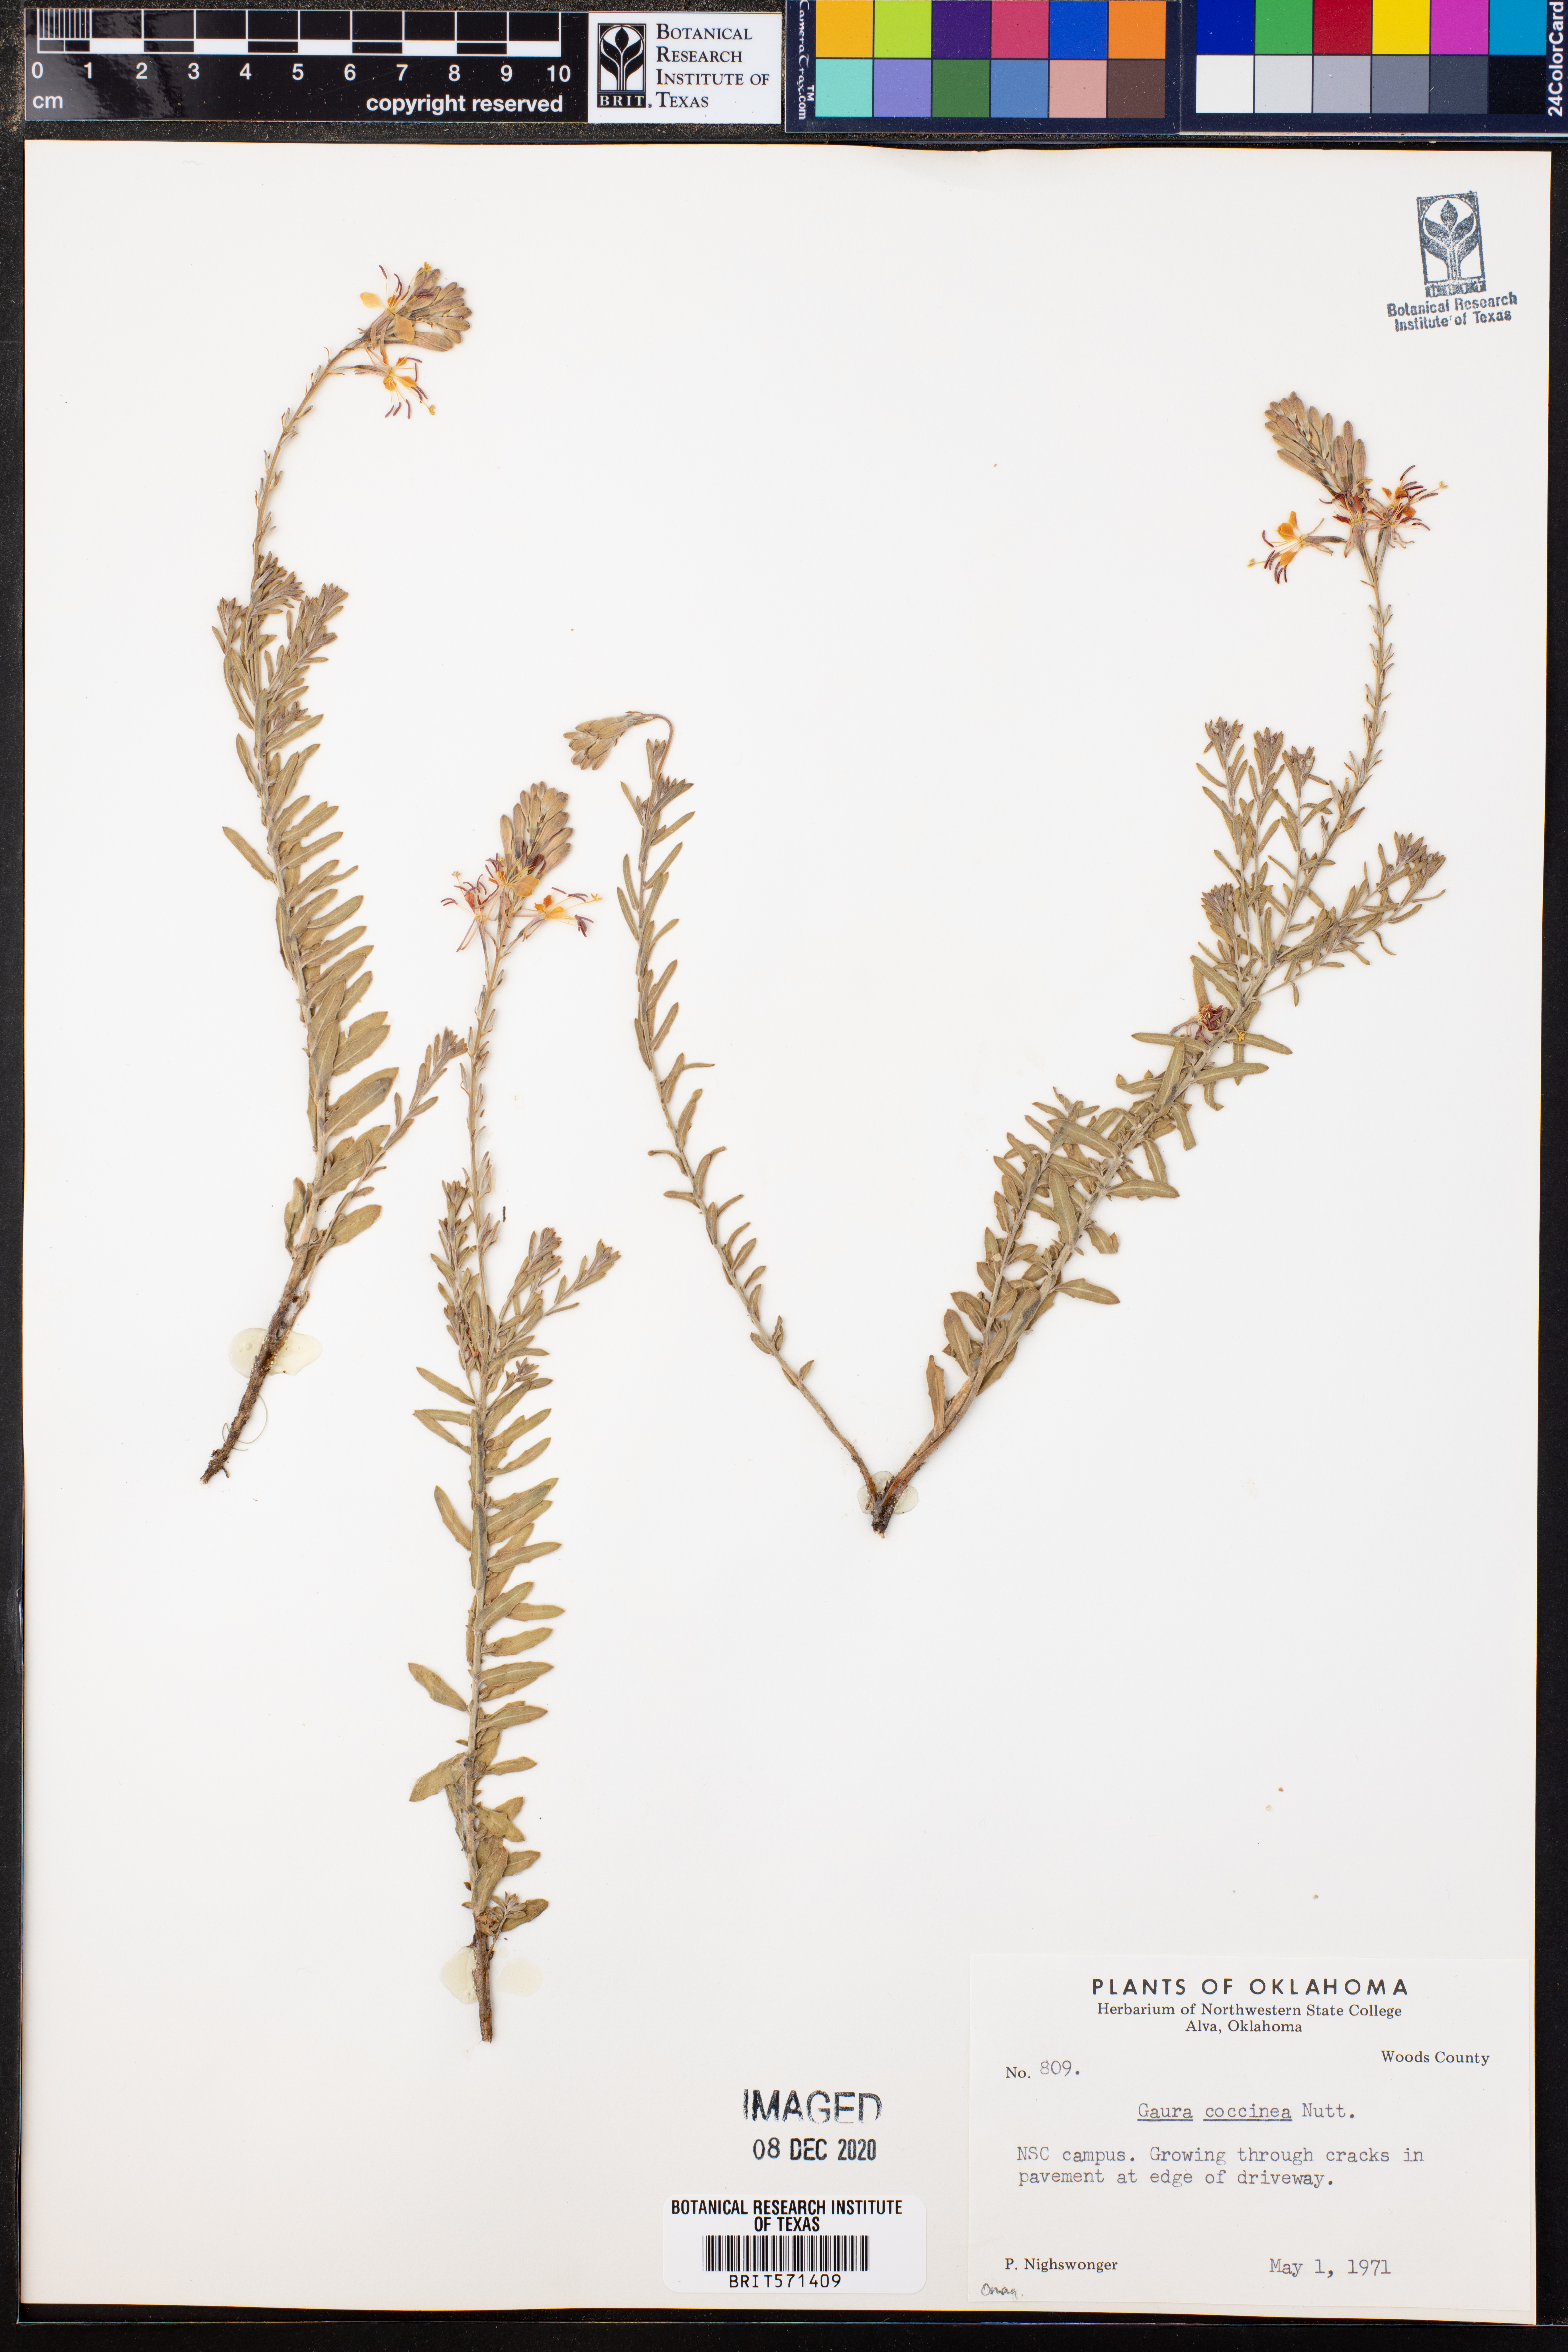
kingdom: Plantae
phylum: Tracheophyta
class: Magnoliopsida
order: Myrtales
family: Onagraceae
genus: Oenothera
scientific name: Oenothera suffrutescens
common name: Scarlet beeblossom
